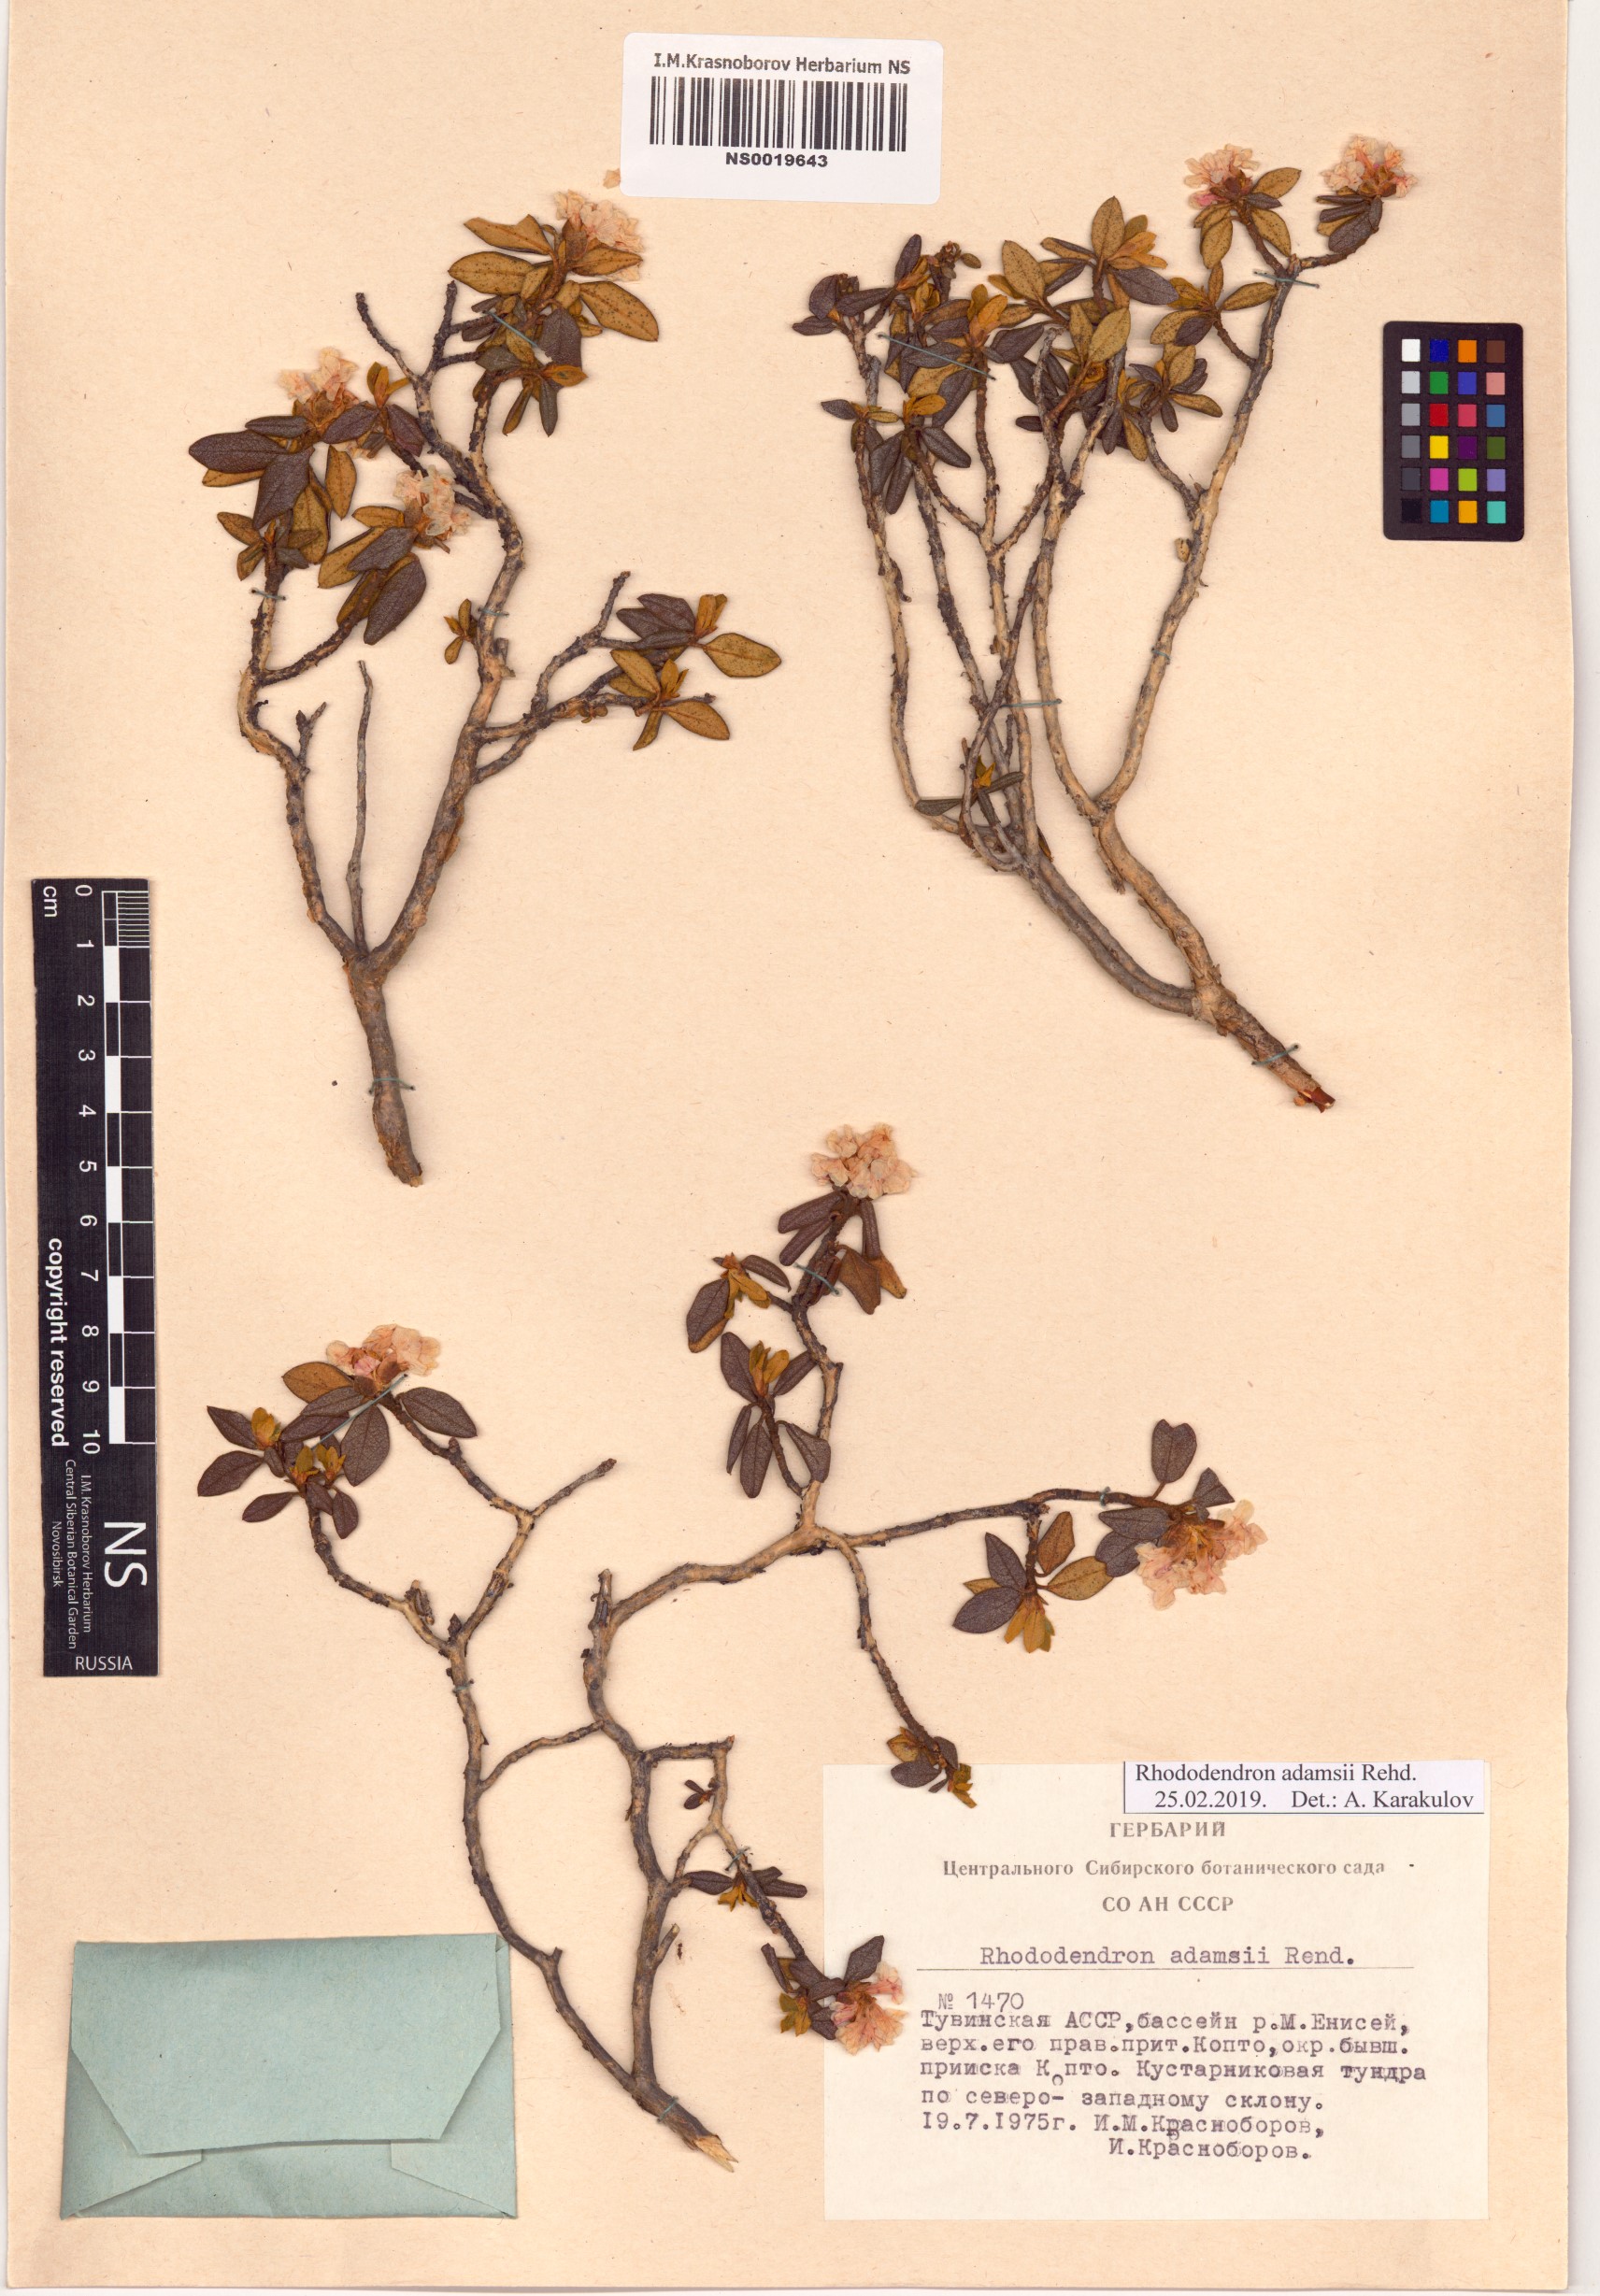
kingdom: Plantae
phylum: Tracheophyta
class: Magnoliopsida
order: Ericales
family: Ericaceae
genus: Rhododendron
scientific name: Rhododendron adamsii
